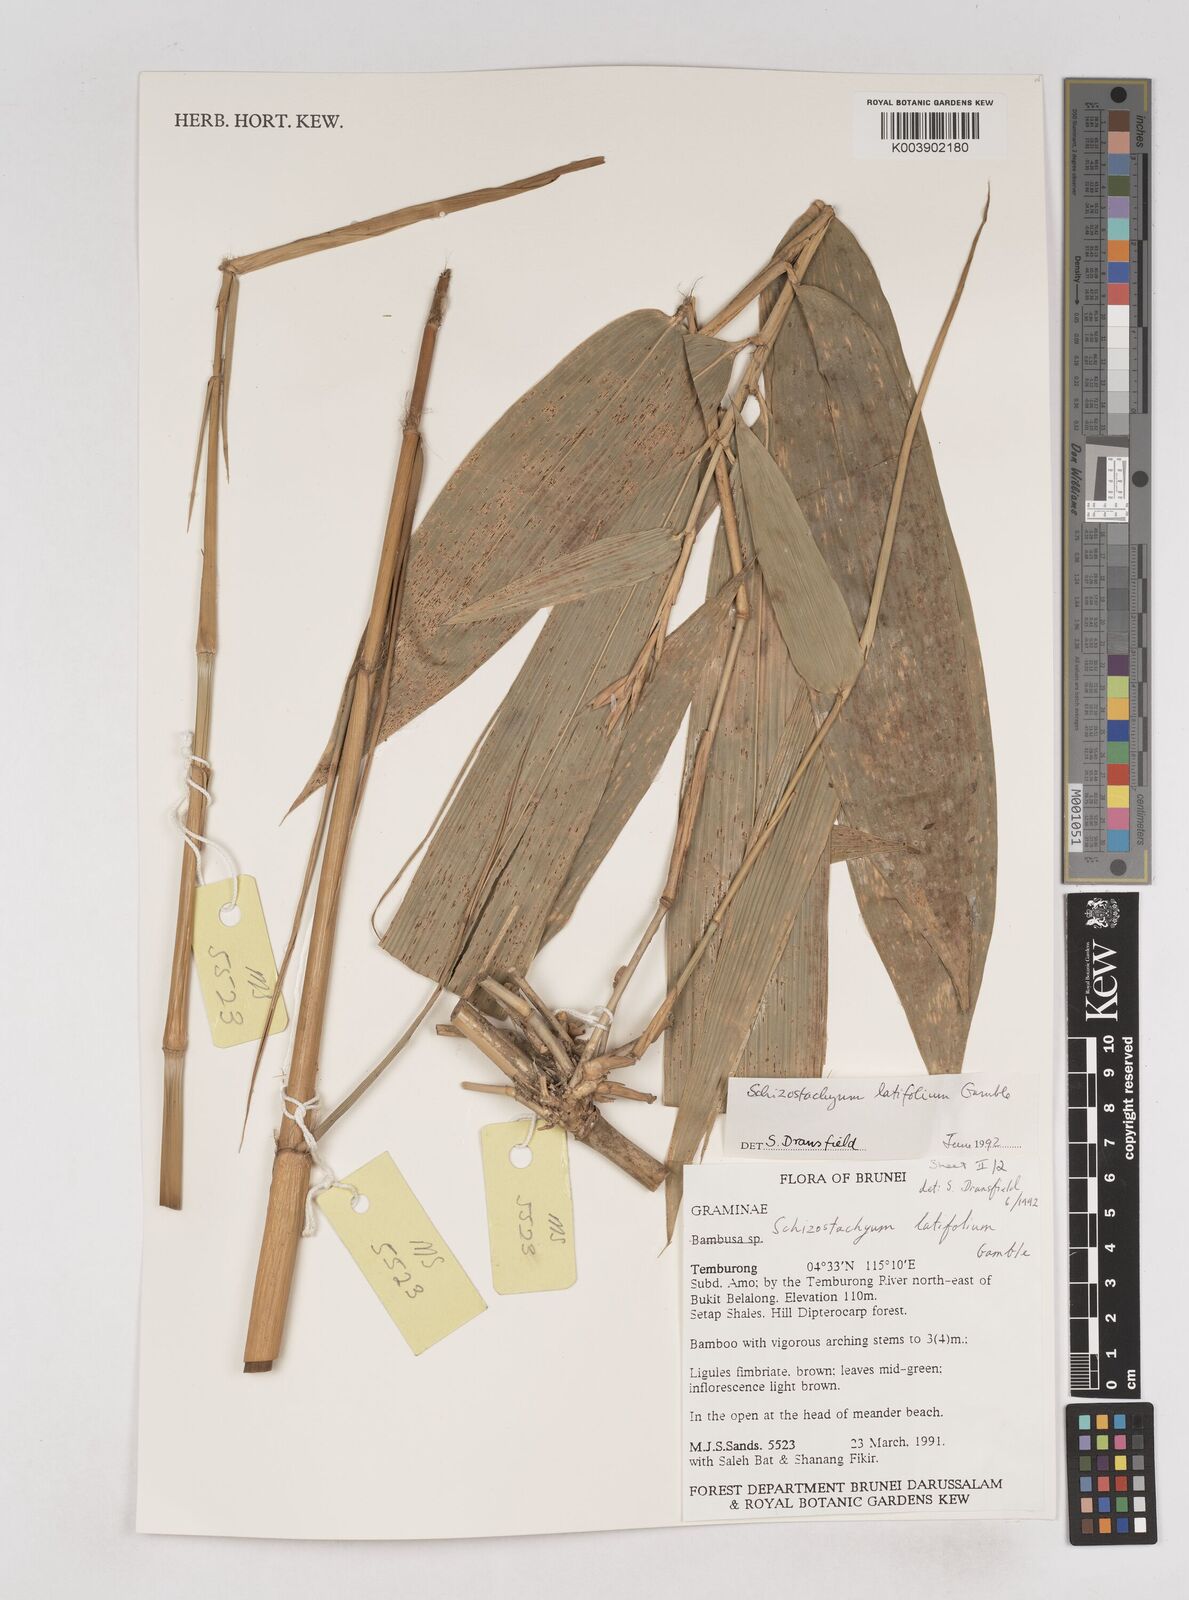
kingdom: Plantae
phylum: Tracheophyta
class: Liliopsida
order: Poales
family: Poaceae
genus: Schizostachyum
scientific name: Schizostachyum
